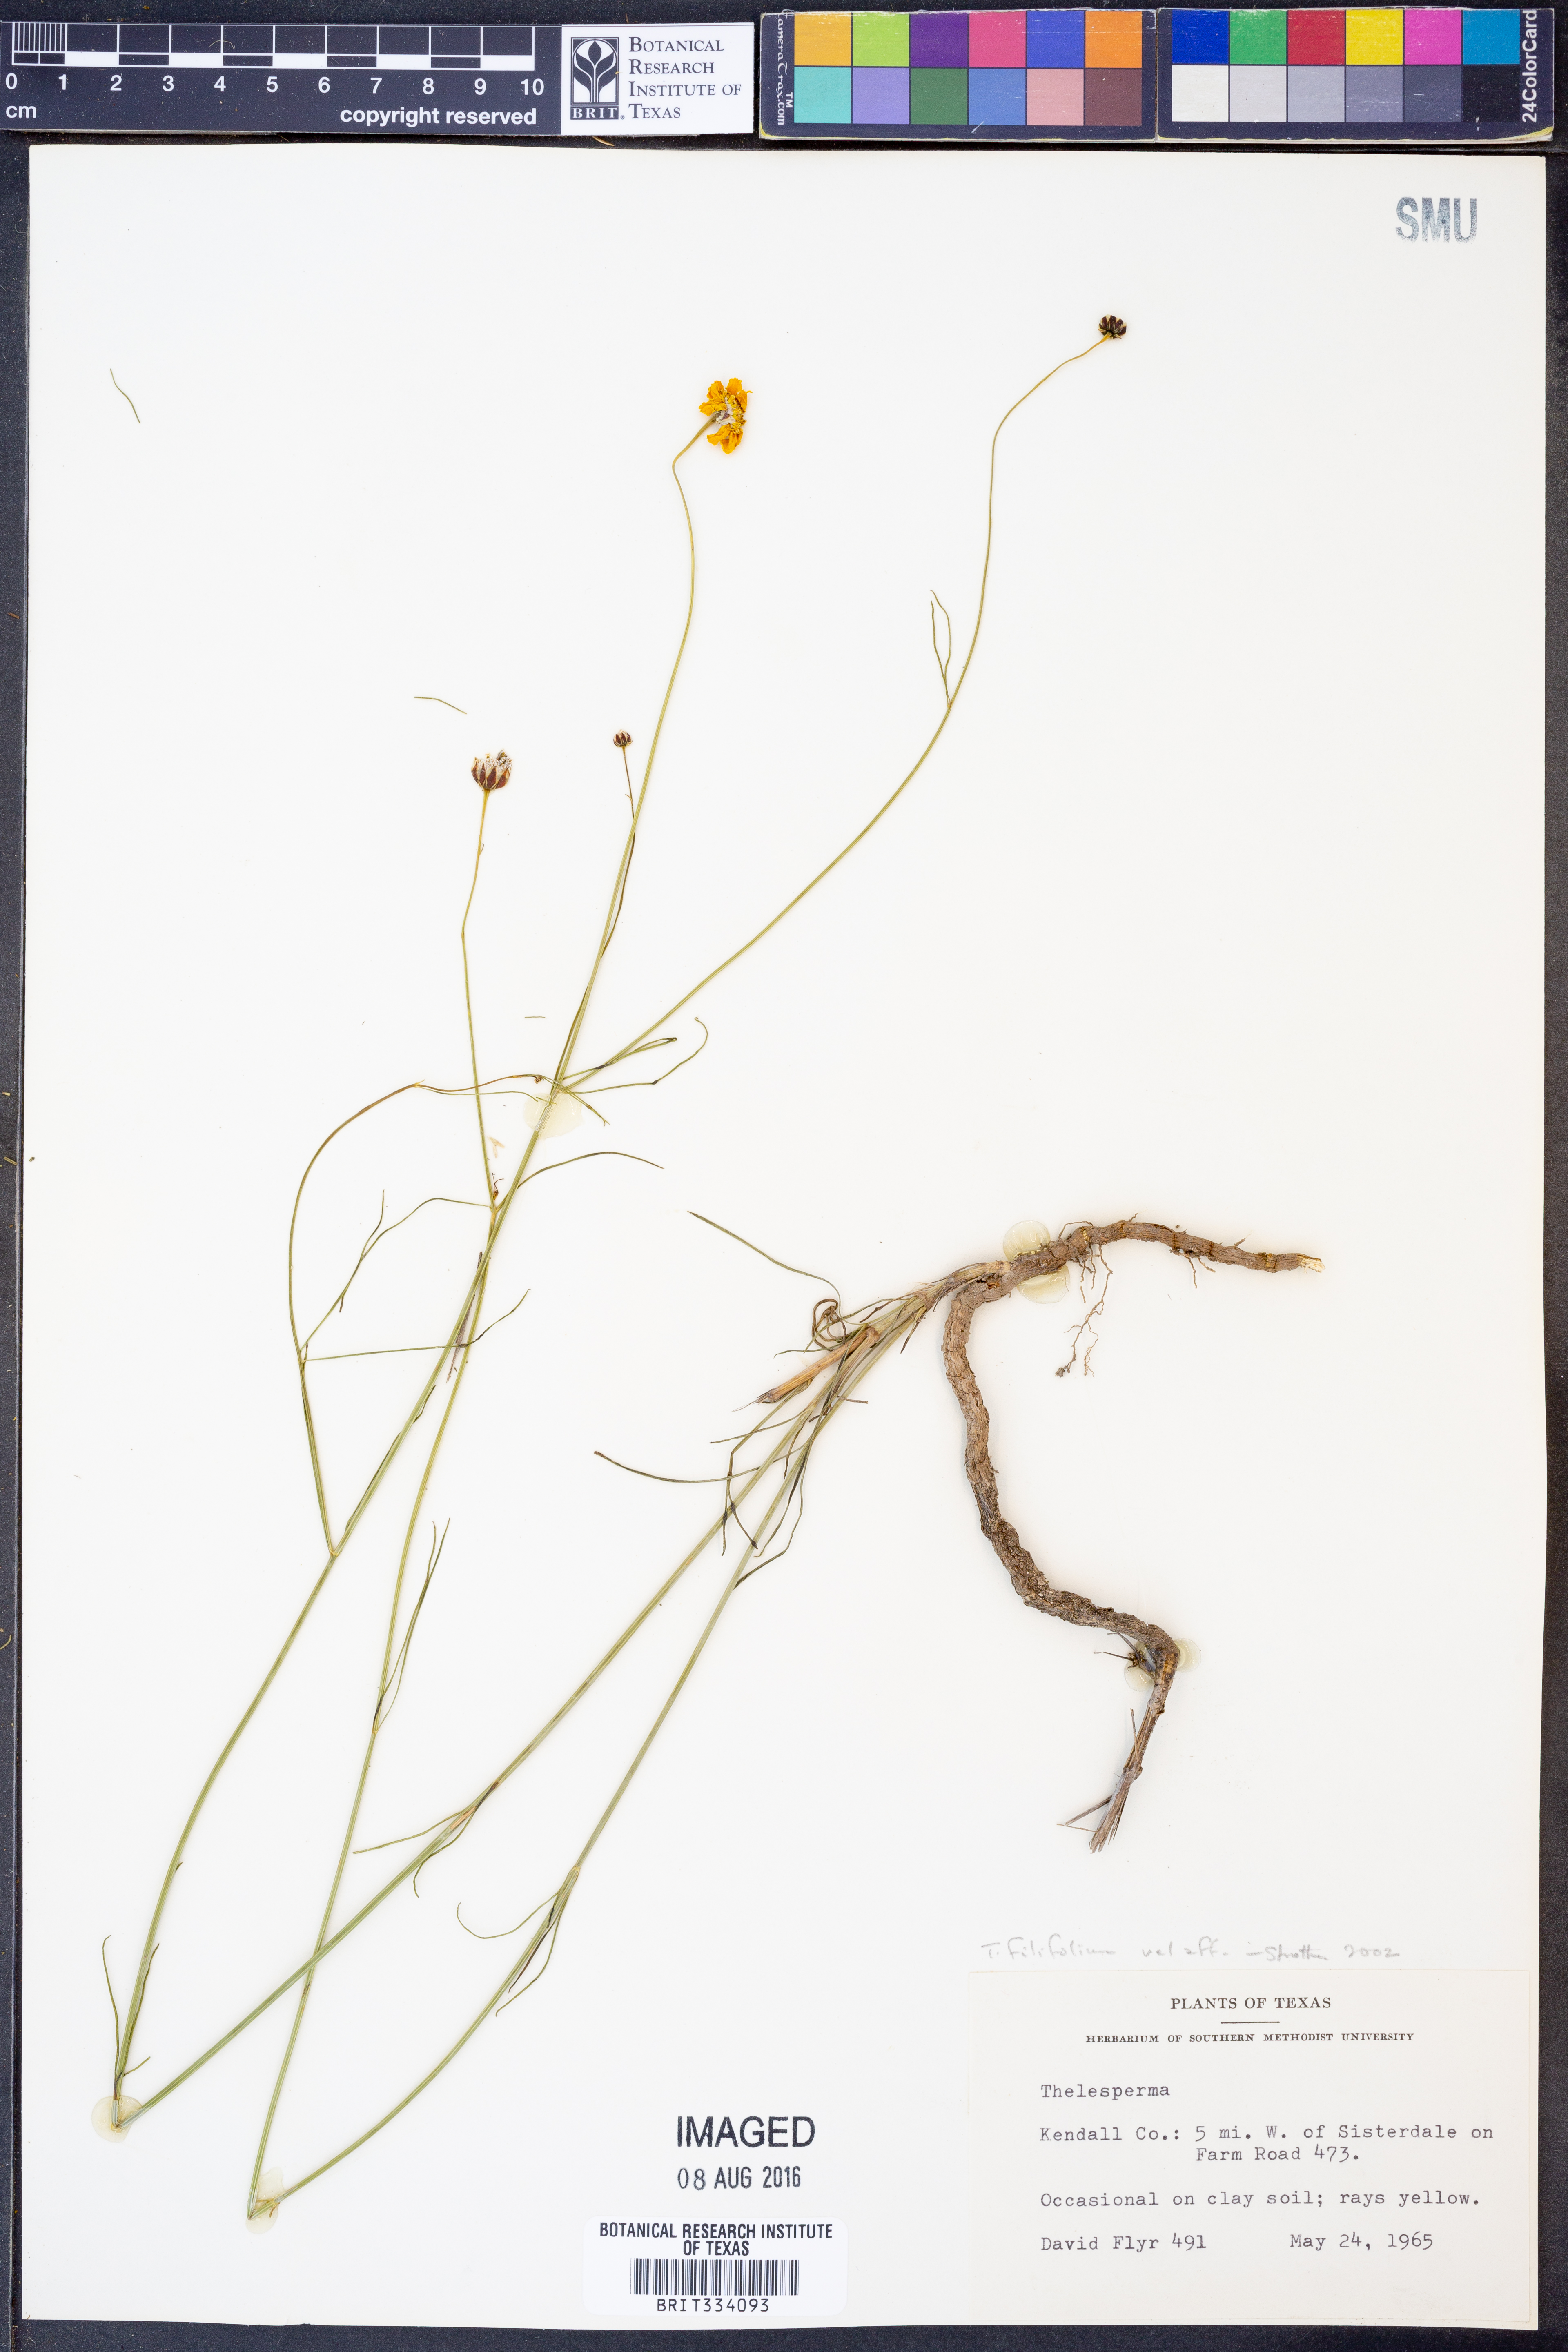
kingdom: Plantae
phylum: Tracheophyta
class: Magnoliopsida
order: Asterales
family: Asteraceae
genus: Thelesperma
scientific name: Thelesperma filifolium
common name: Stiff greenthread
